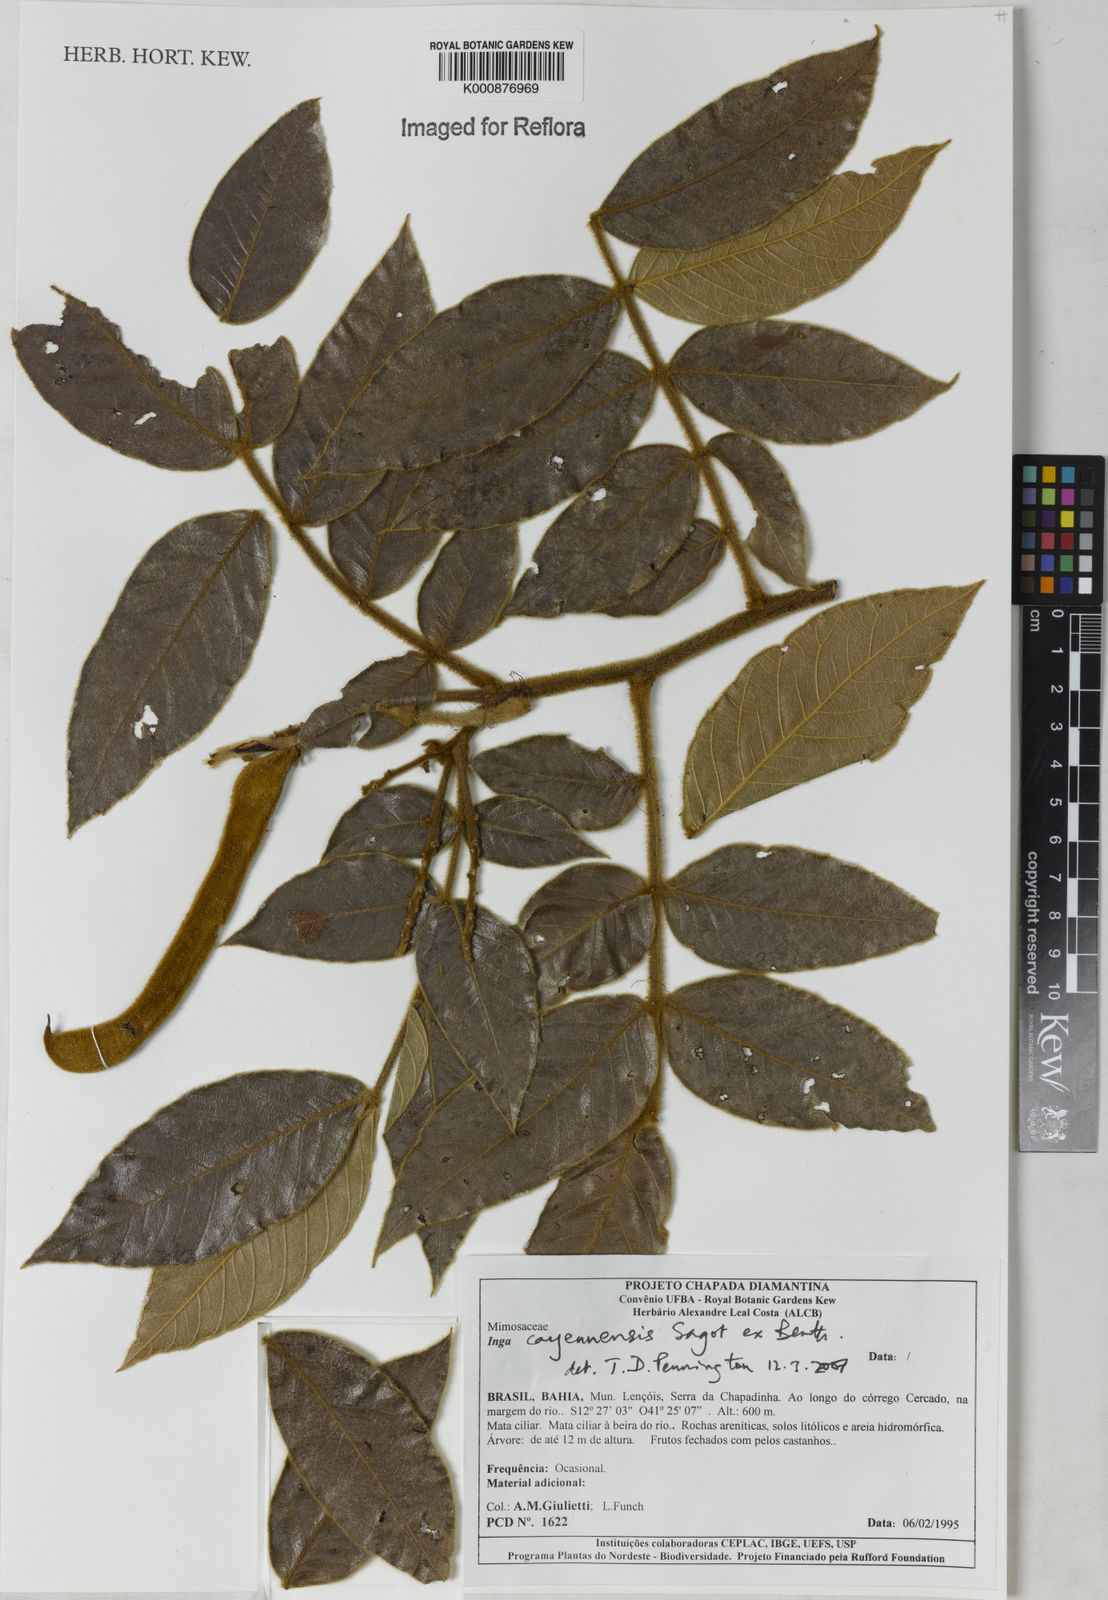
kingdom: Plantae
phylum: Tracheophyta
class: Magnoliopsida
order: Fabales
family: Fabaceae
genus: Inga
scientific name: Inga cayennensis
